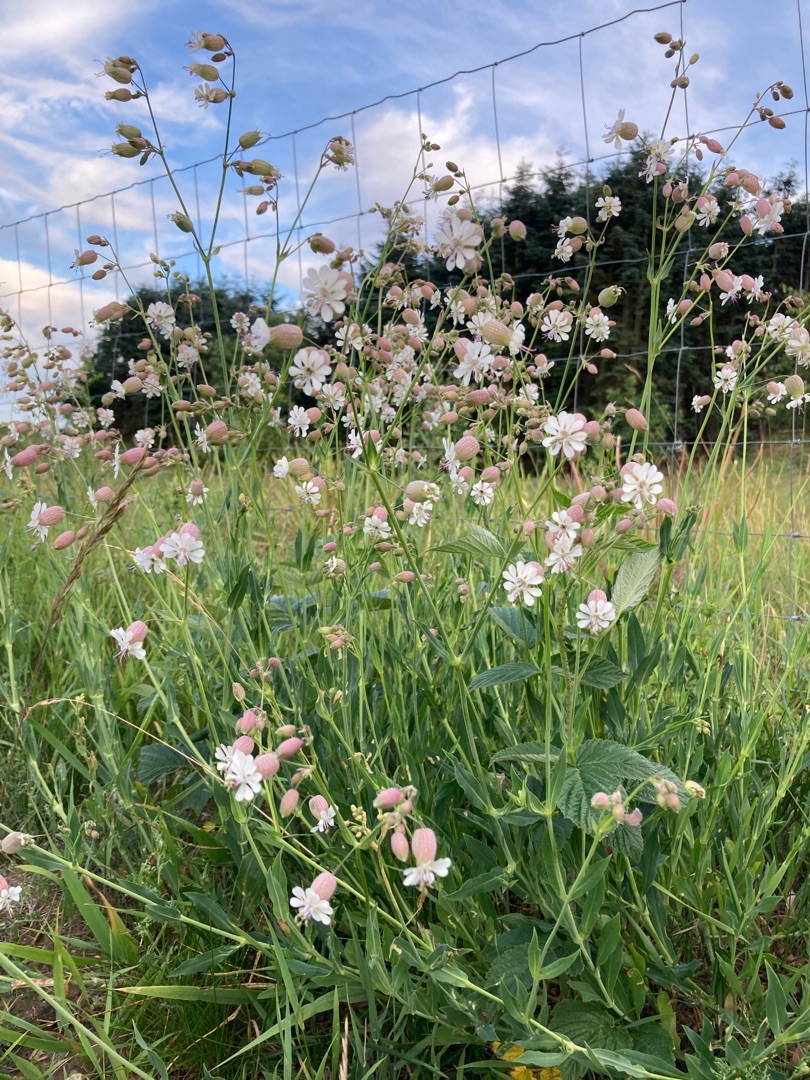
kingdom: Plantae
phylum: Tracheophyta
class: Magnoliopsida
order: Caryophyllales
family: Caryophyllaceae
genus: Silene
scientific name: Silene vulgaris
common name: Blæresmælde
